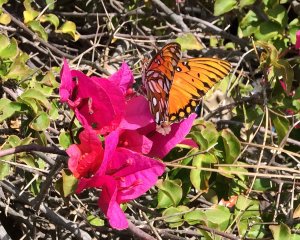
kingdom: Animalia
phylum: Arthropoda
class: Insecta
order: Lepidoptera
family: Nymphalidae
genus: Dione
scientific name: Dione vanillae
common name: Gulf Fritillary
